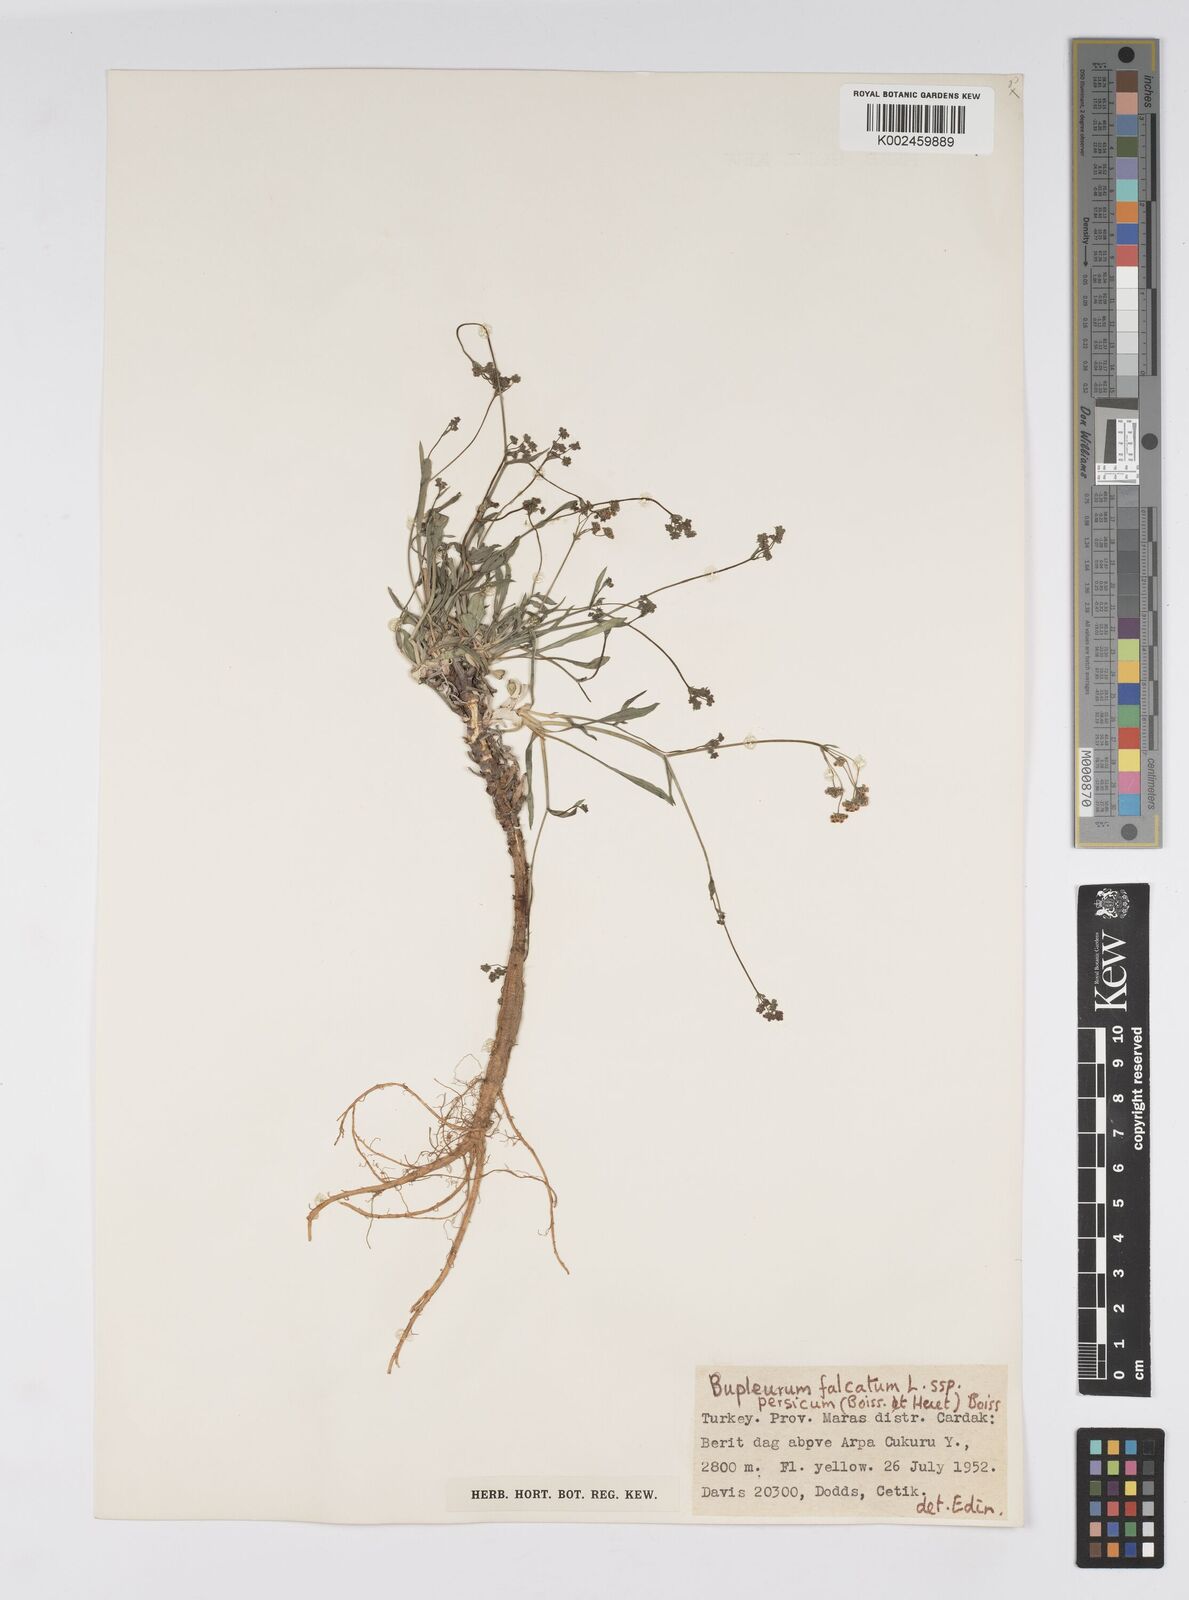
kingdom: Plantae
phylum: Tracheophyta
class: Magnoliopsida
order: Apiales
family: Apiaceae
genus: Bupleurum
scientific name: Bupleurum persicum
